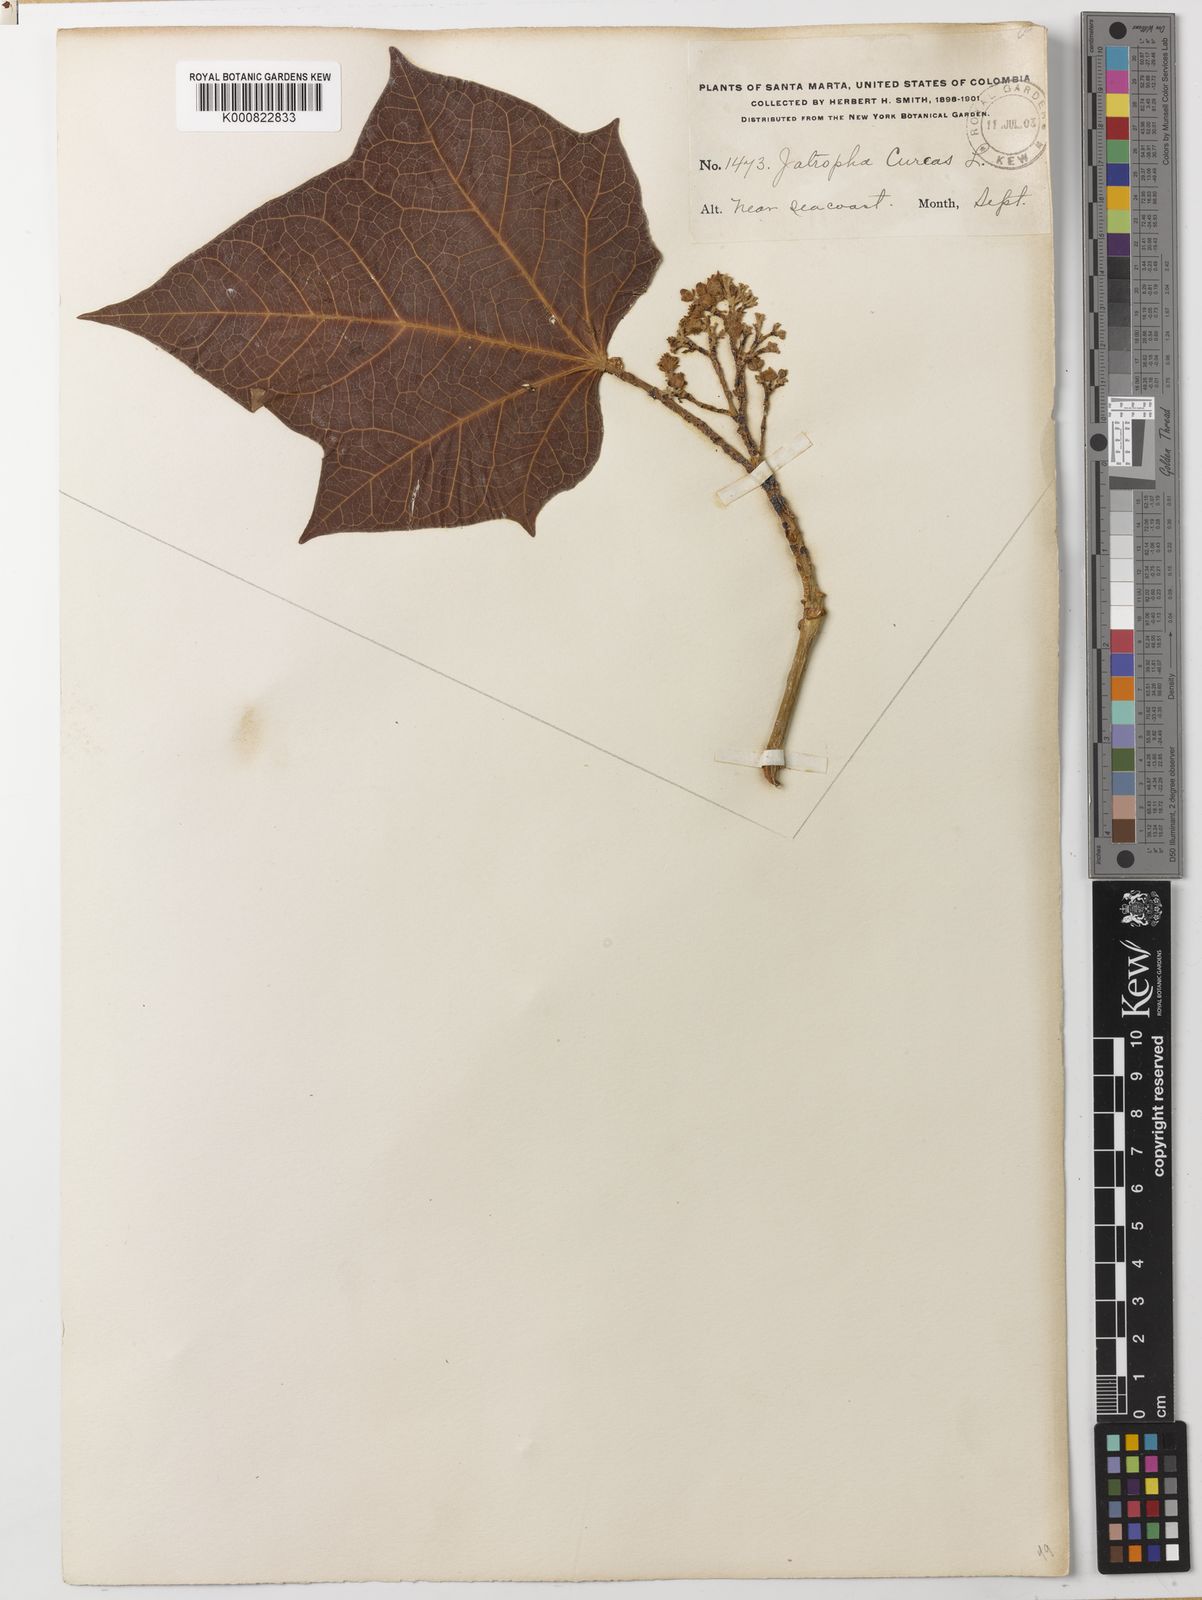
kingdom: Plantae
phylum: Tracheophyta
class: Magnoliopsida
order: Malpighiales
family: Euphorbiaceae
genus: Jatropha
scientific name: Jatropha curcas
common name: Barbados nut
